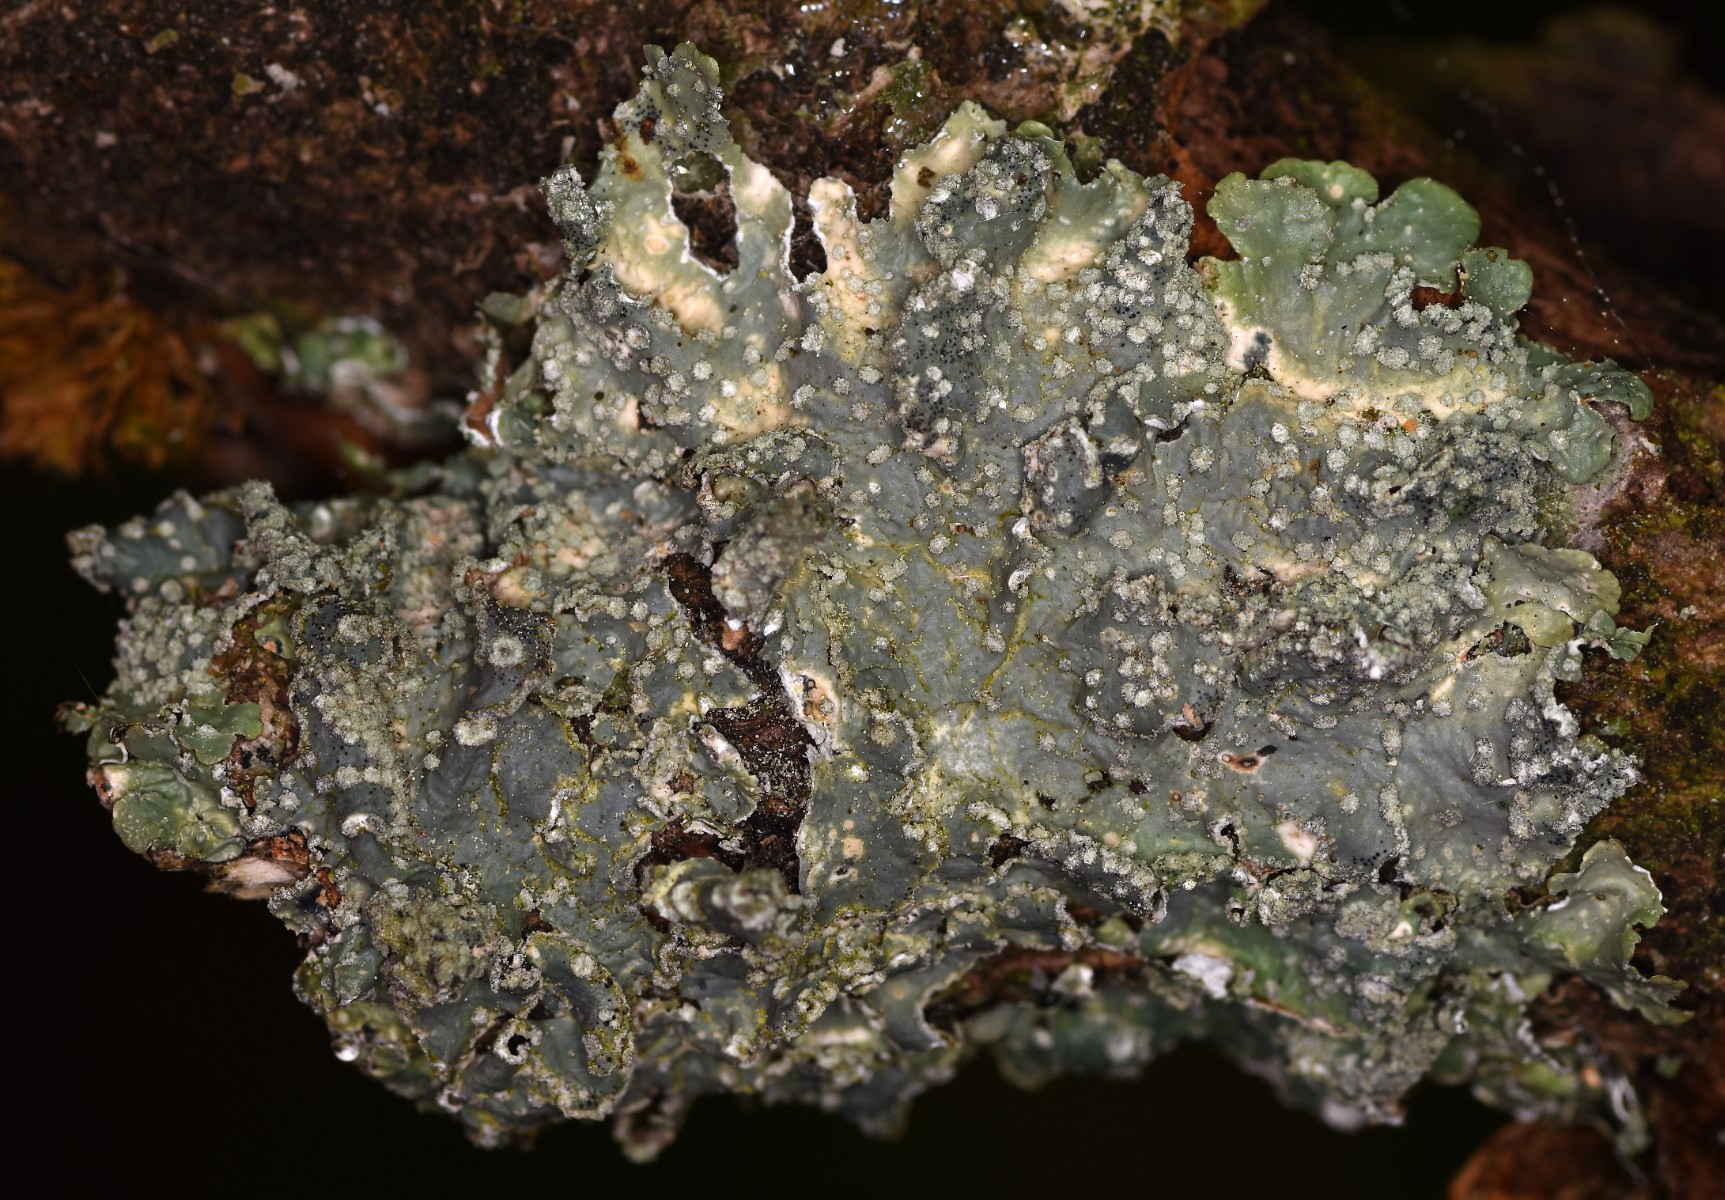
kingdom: Fungi
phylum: Ascomycota
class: Lecanoromycetes
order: Lecanorales
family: Parmeliaceae
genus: Punctelia
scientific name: Punctelia subrudecta
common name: punkt-skållav
